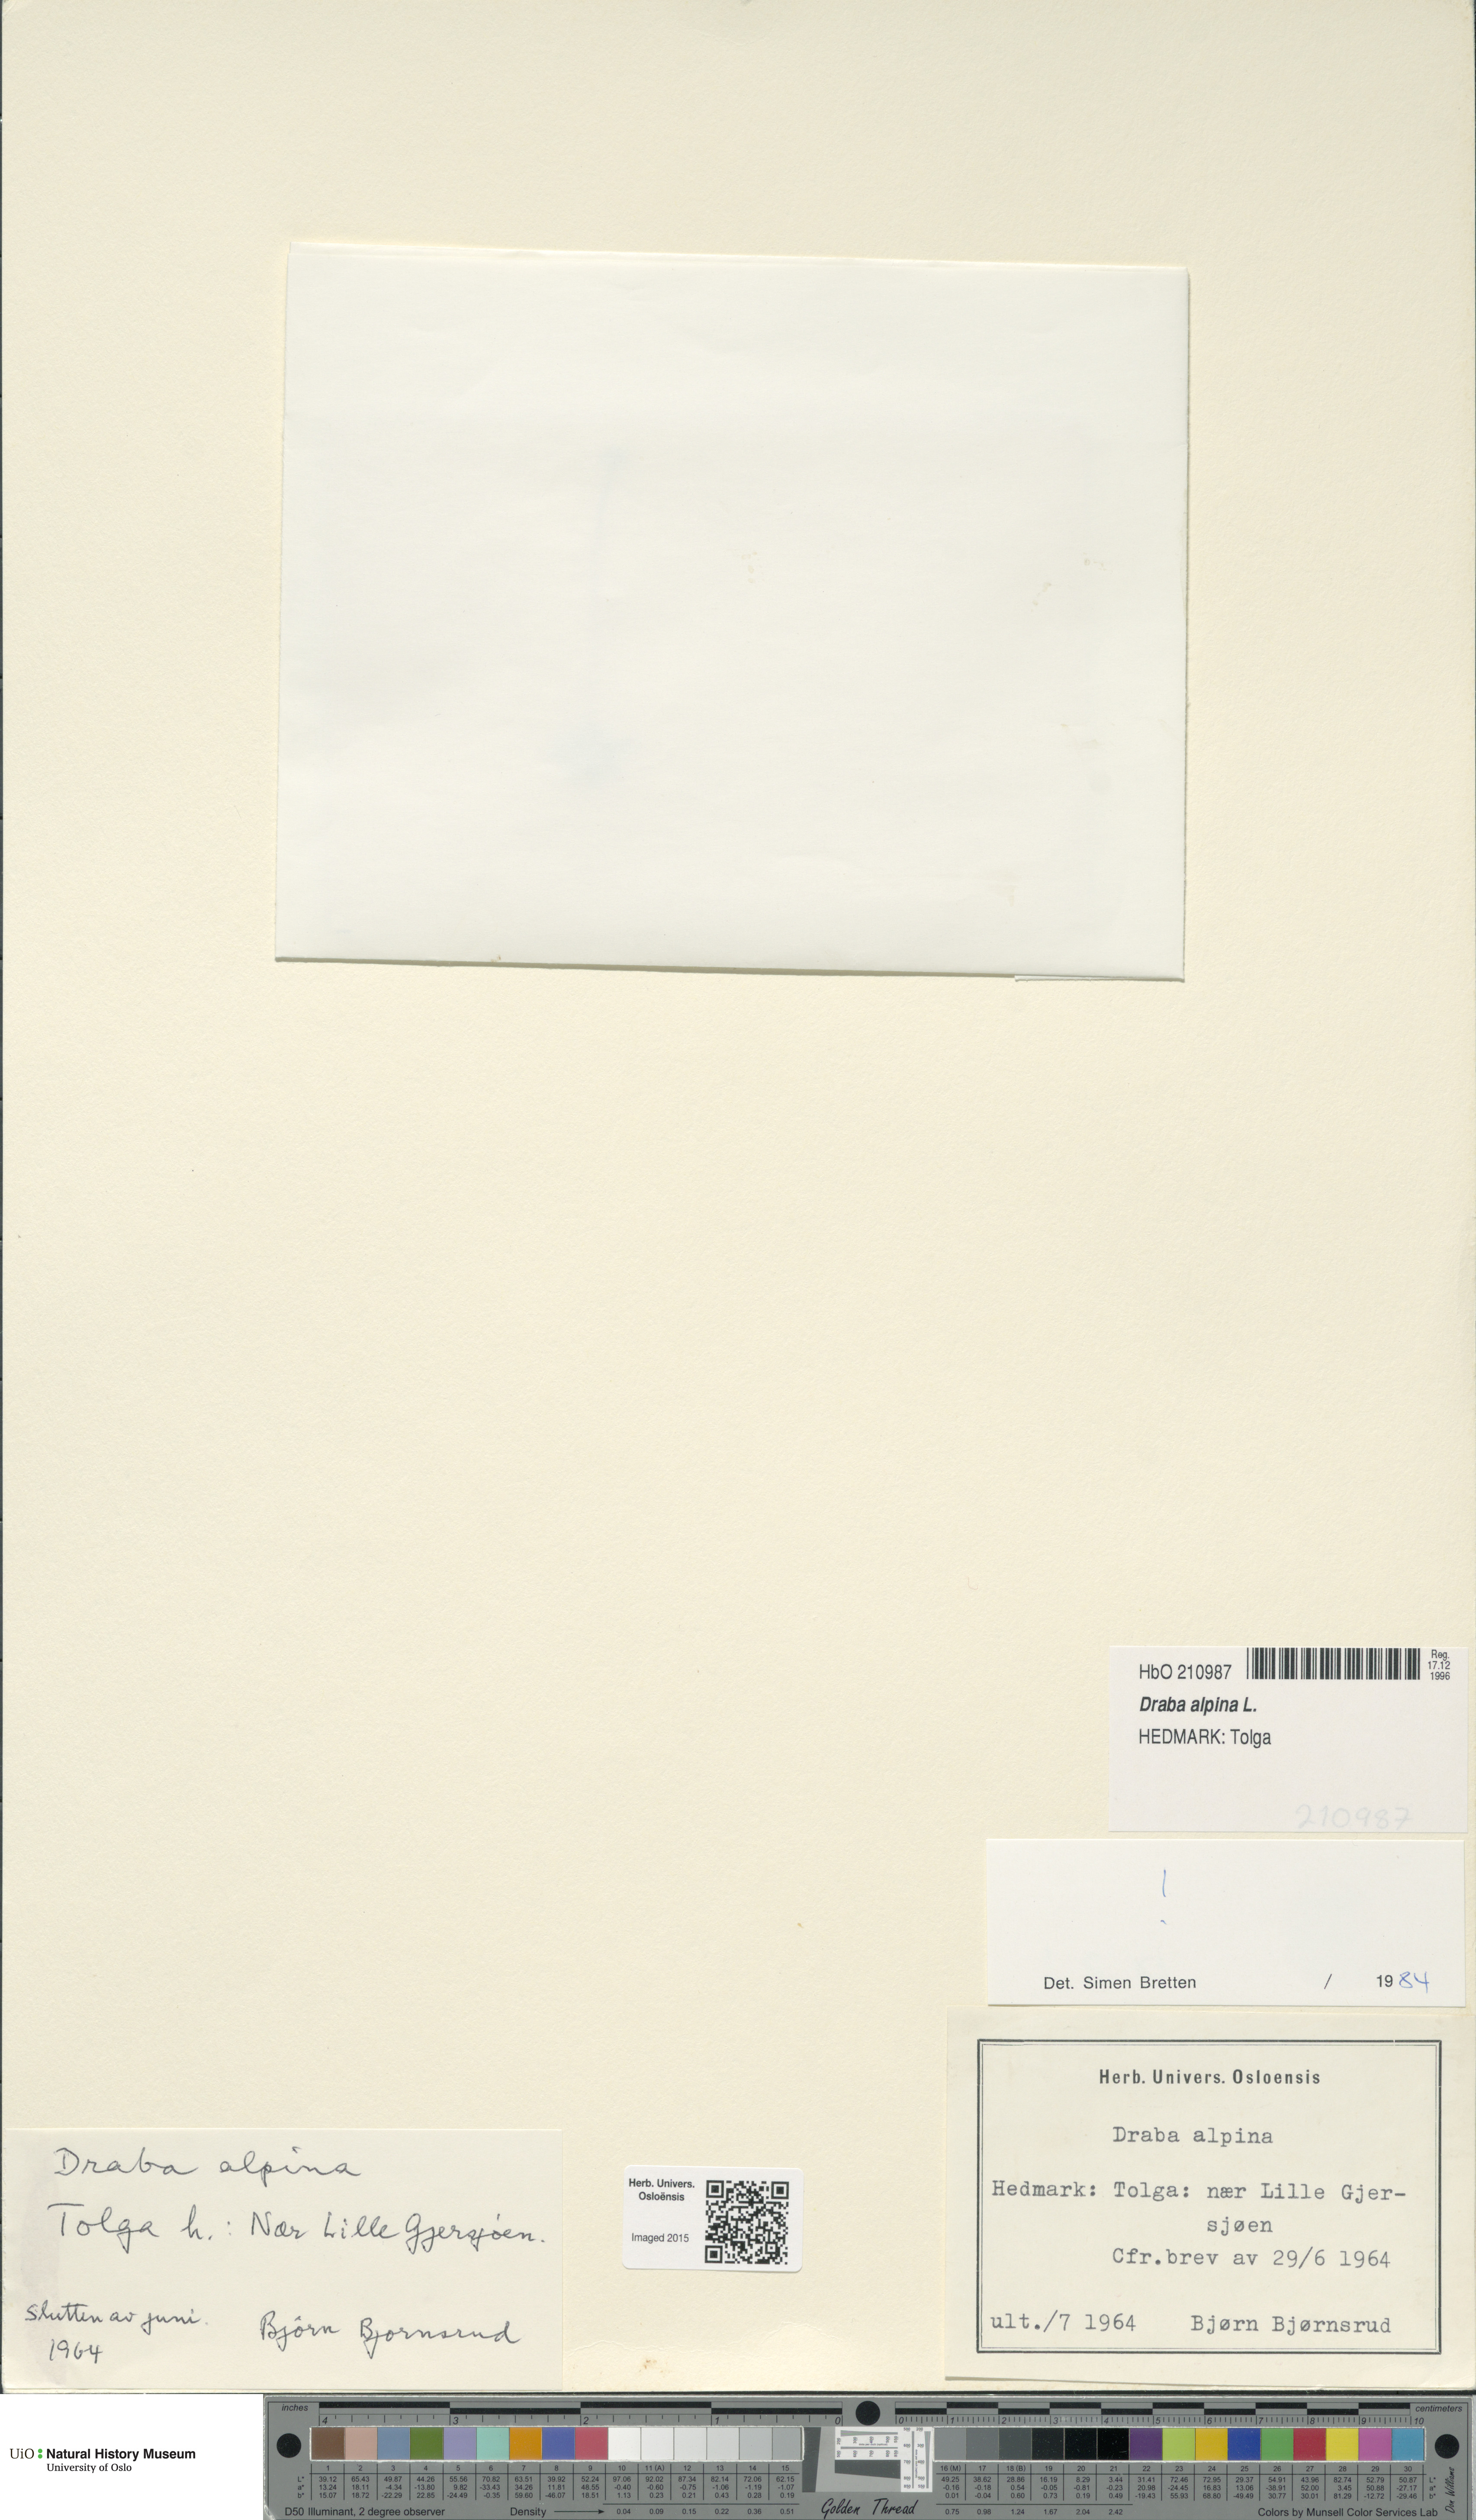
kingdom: Plantae
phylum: Tracheophyta
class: Magnoliopsida
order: Brassicales
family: Brassicaceae
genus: Draba
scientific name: Draba alpina
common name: Alpine draba
